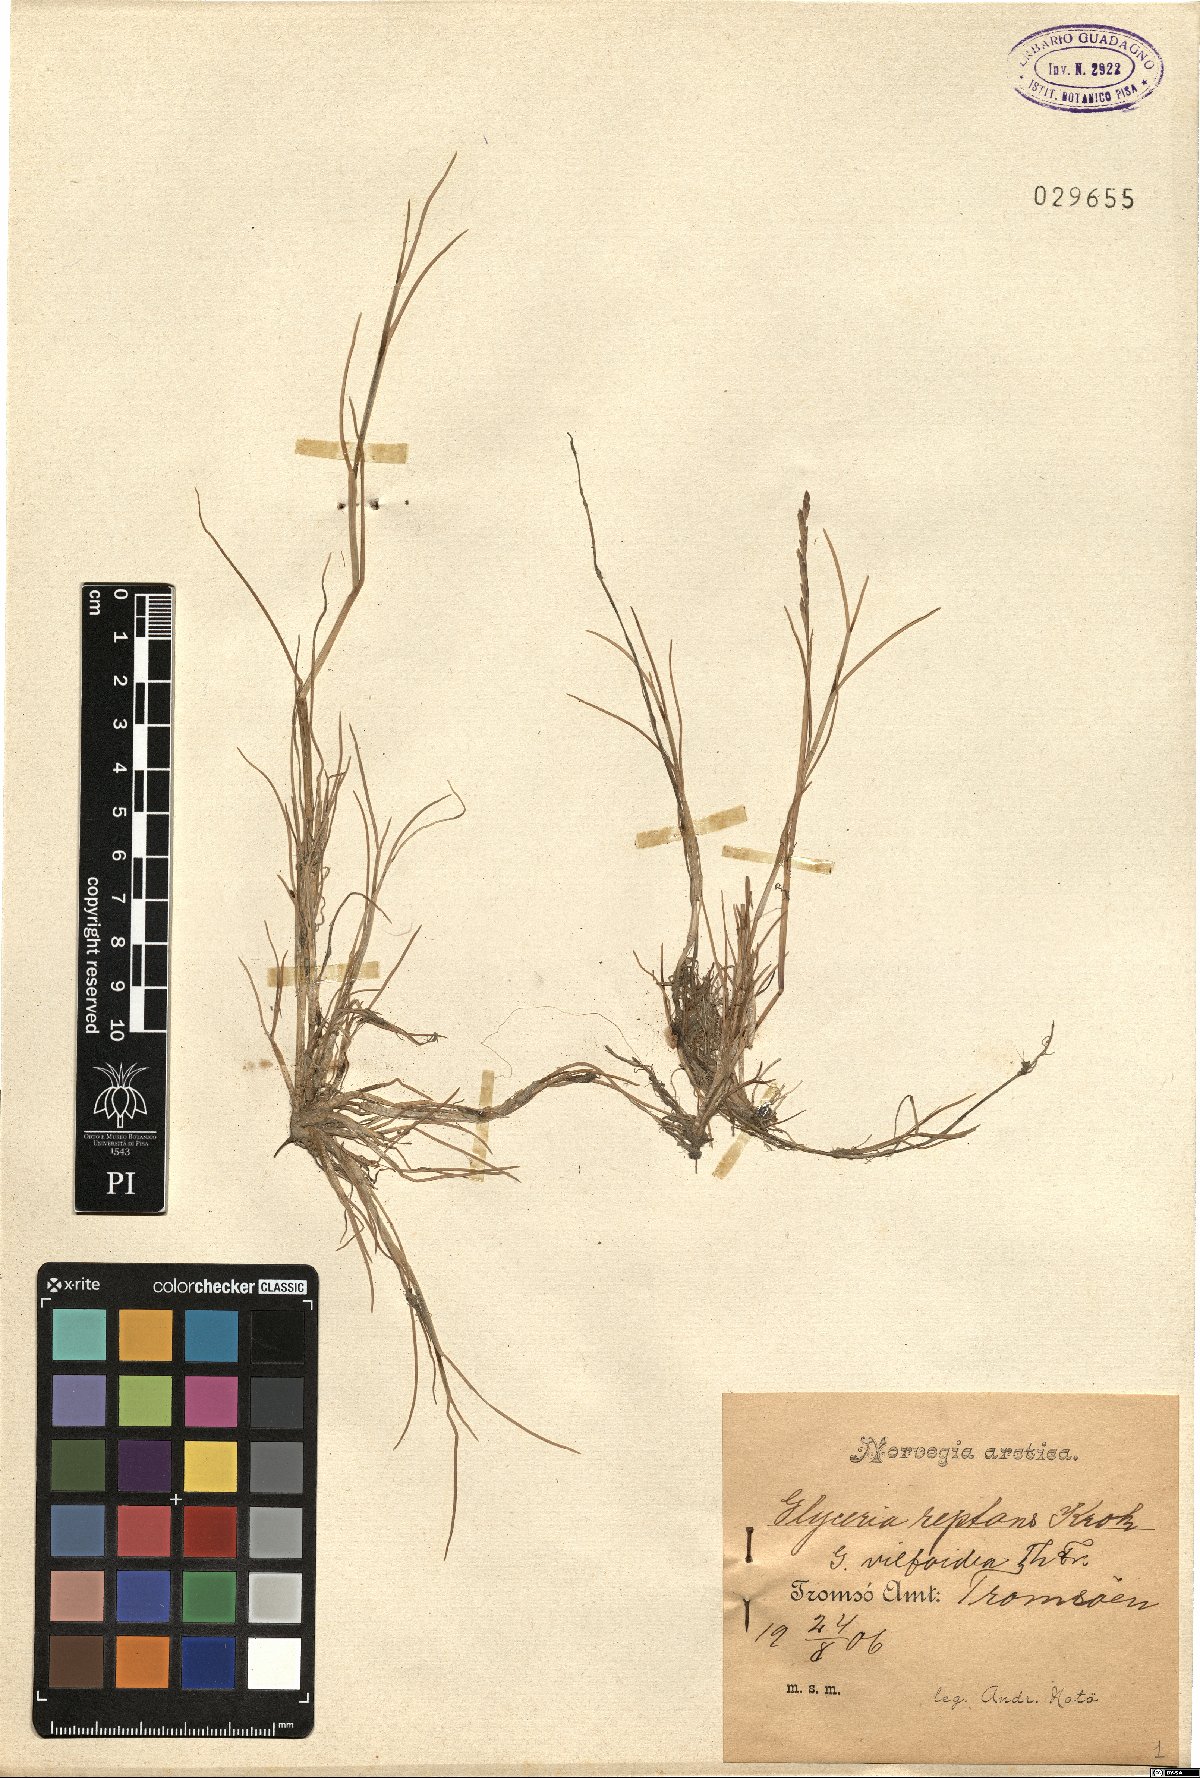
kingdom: Plantae
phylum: Tracheophyta
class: Liliopsida
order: Poales
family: Poaceae
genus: Puccinellia
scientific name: Puccinellia distans
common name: Weeping alkaligrass
